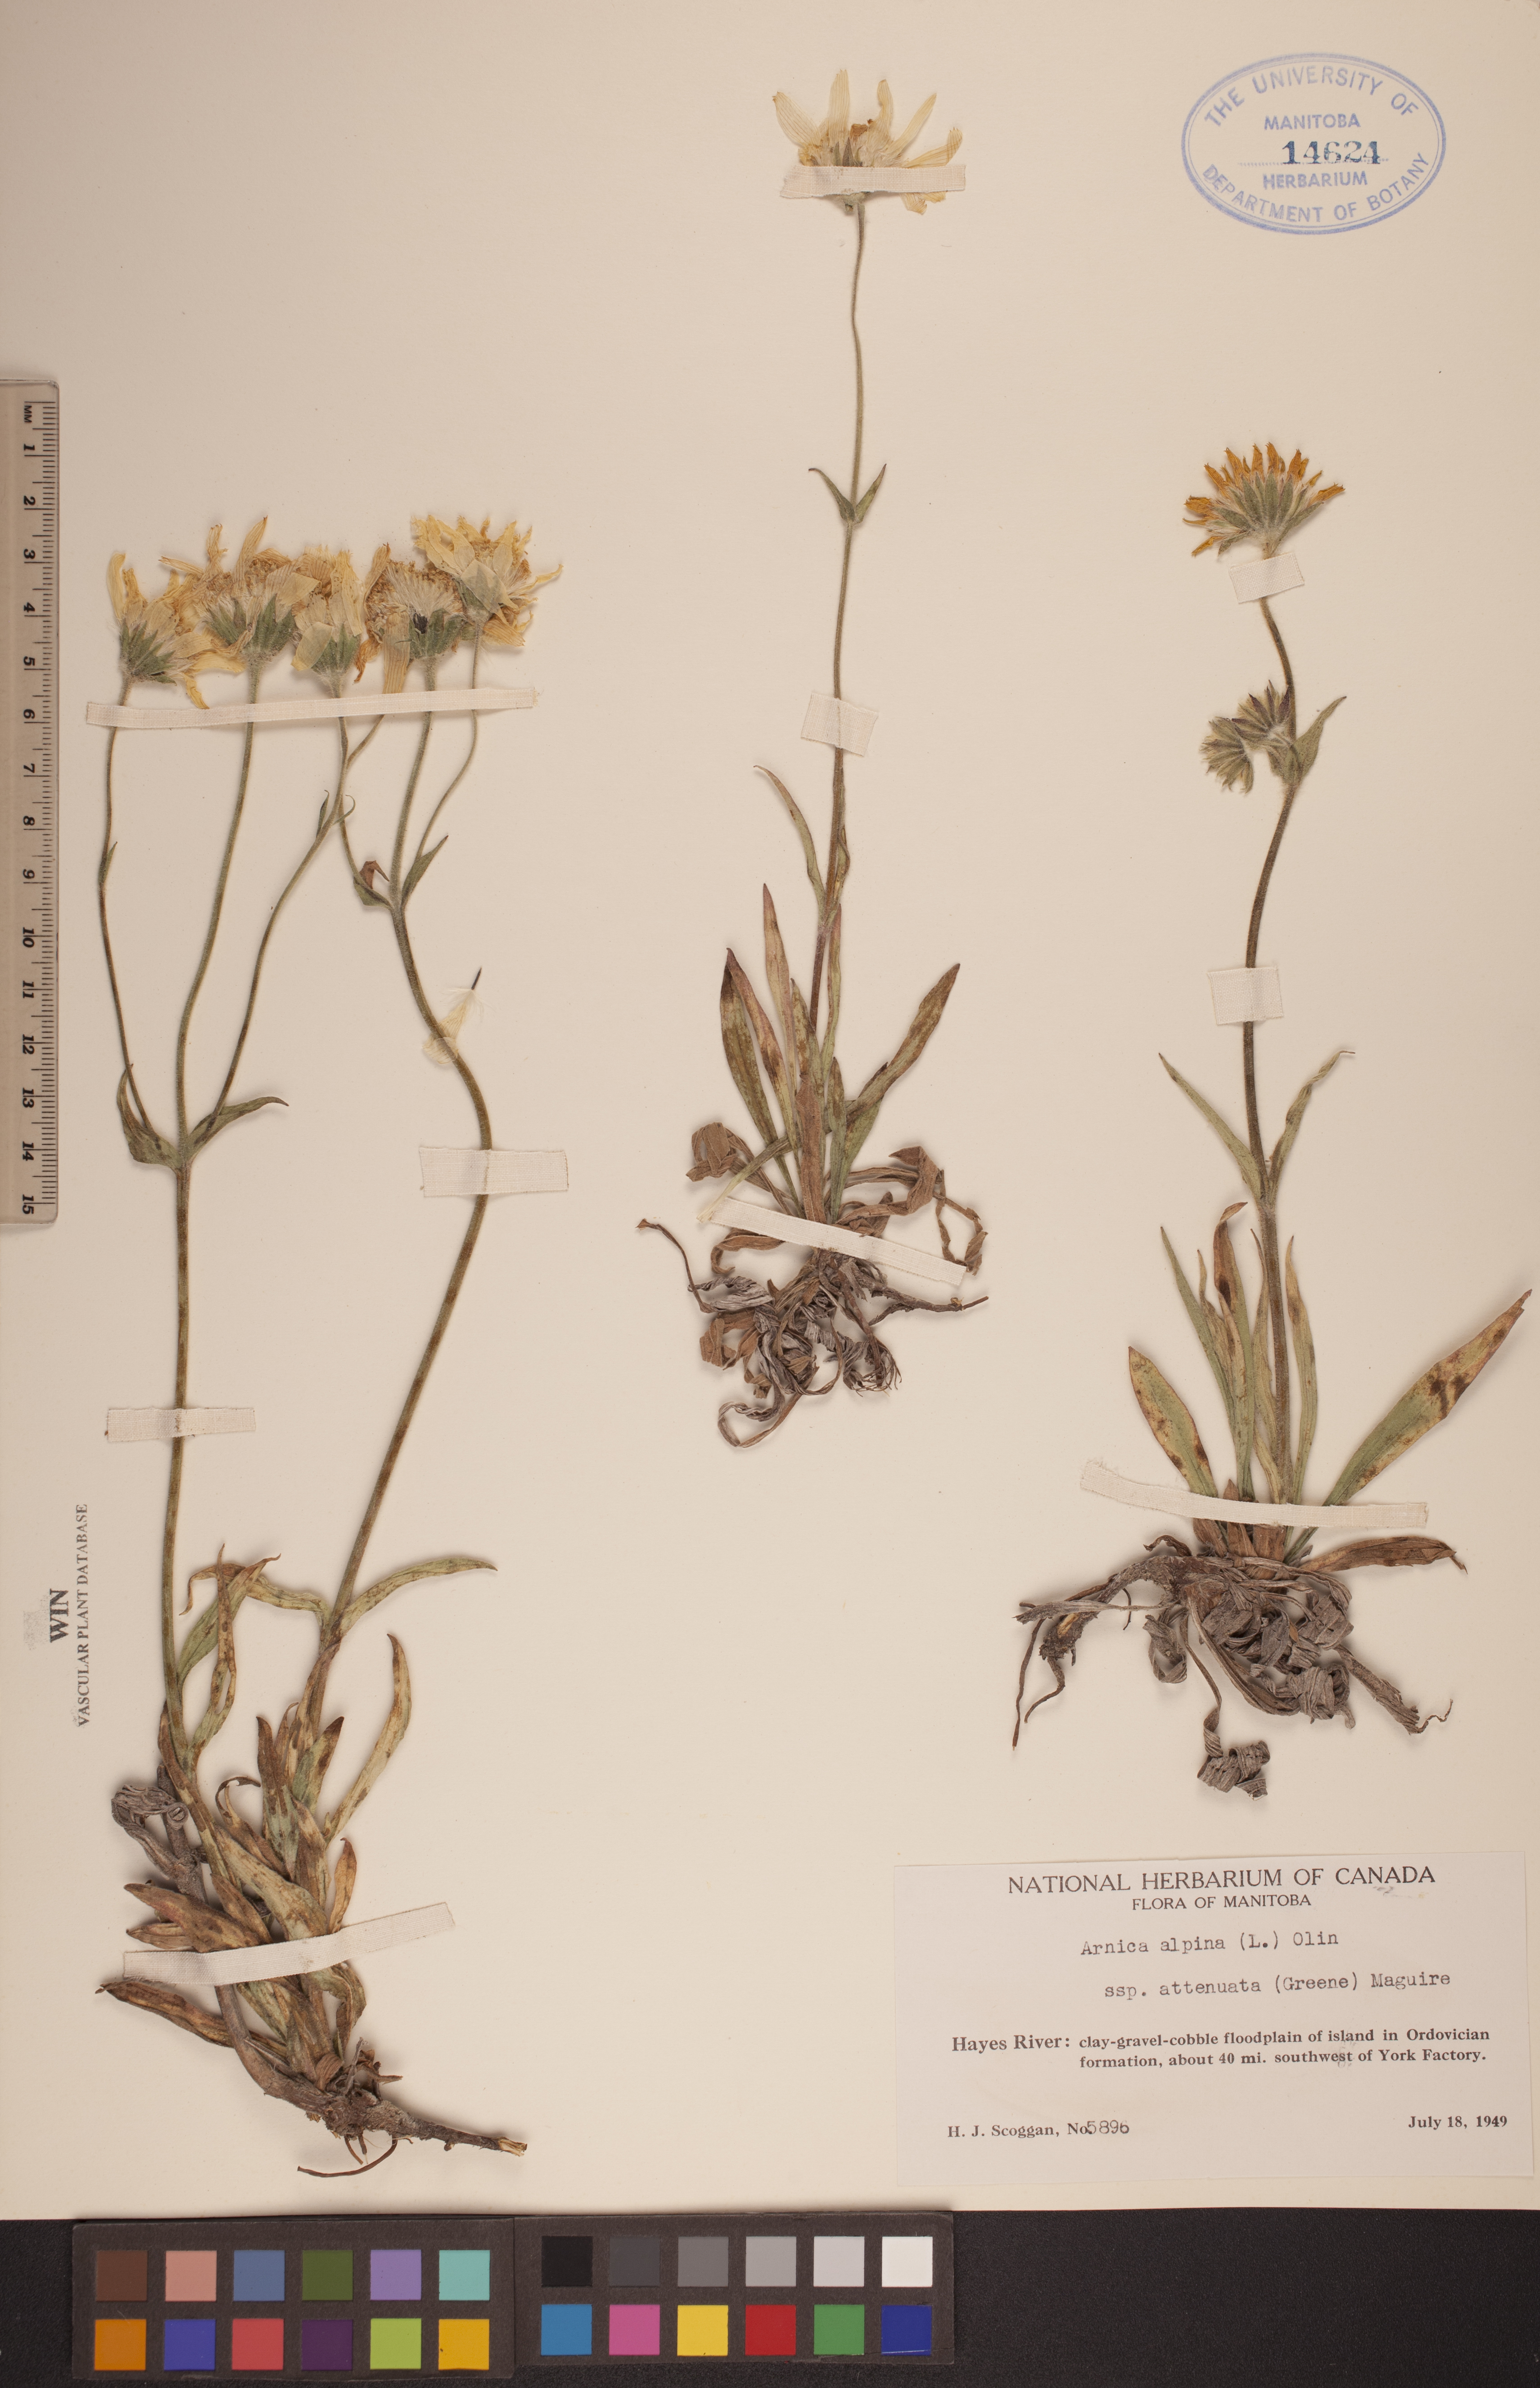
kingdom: Plantae
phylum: Tracheophyta
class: Magnoliopsida
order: Asterales
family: Asteraceae
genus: Arnica
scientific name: Arnica angustifolia
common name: Arctic arnica
